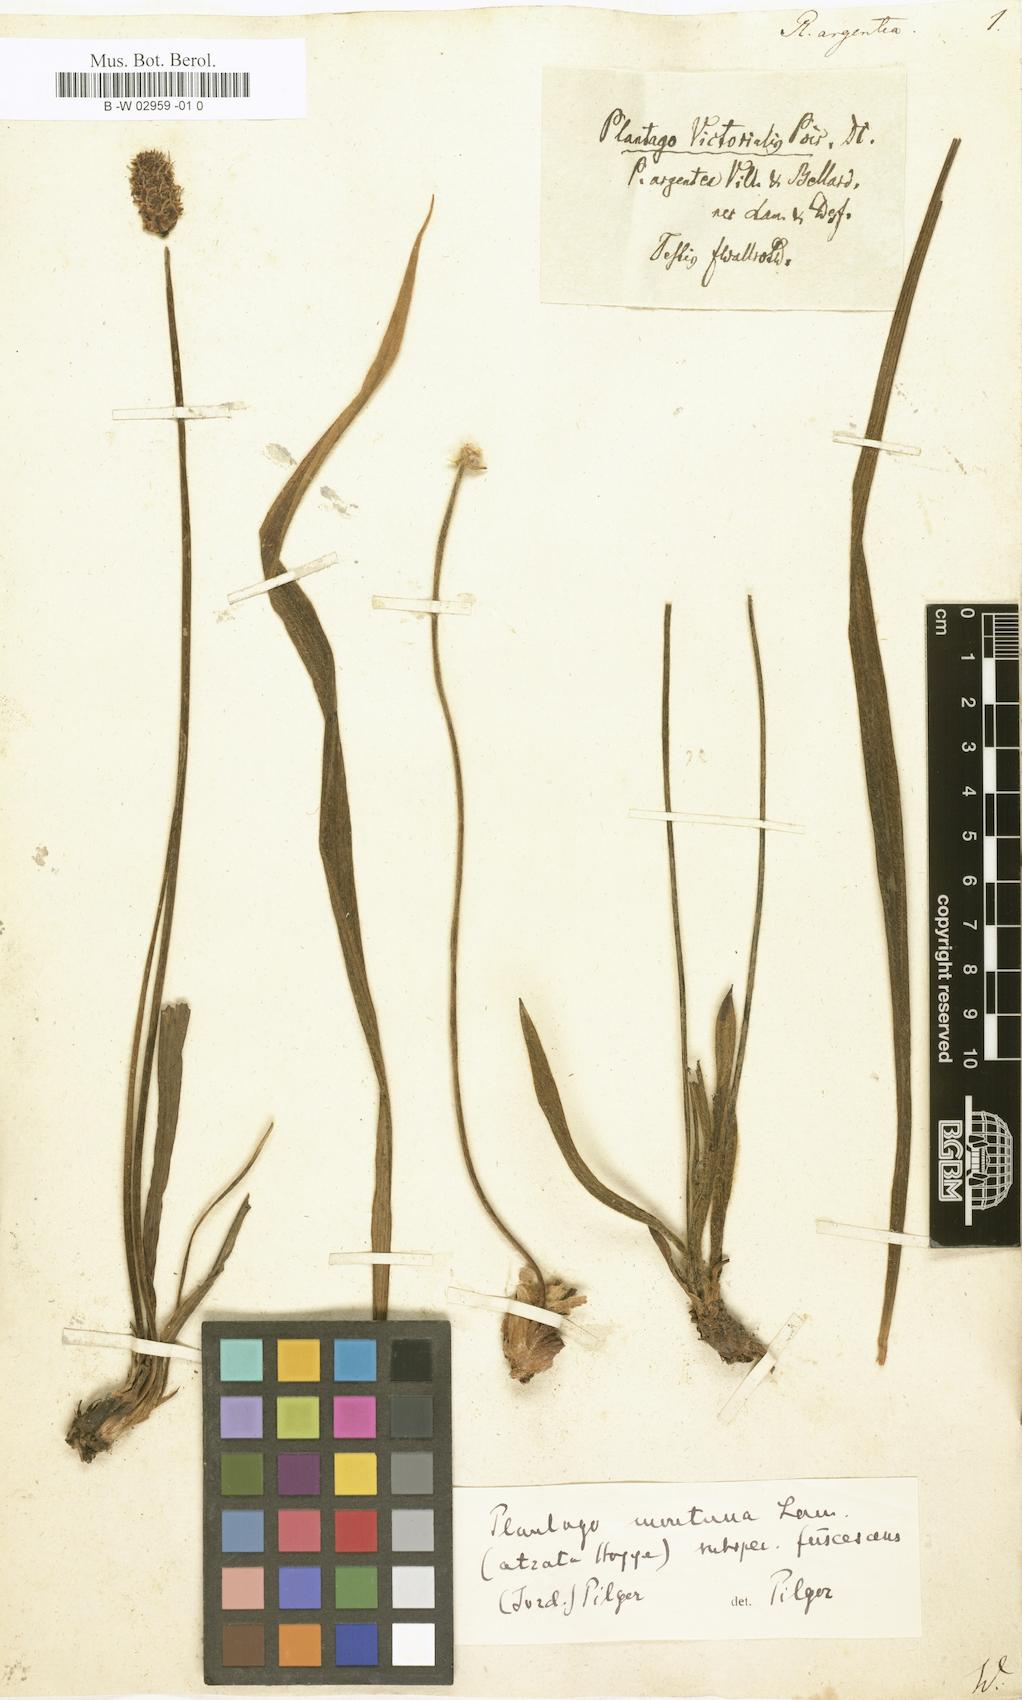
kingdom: Plantae
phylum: Tracheophyta
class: Magnoliopsida
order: Lamiales
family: Plantaginaceae
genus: Plantago
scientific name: Plantago argentea
